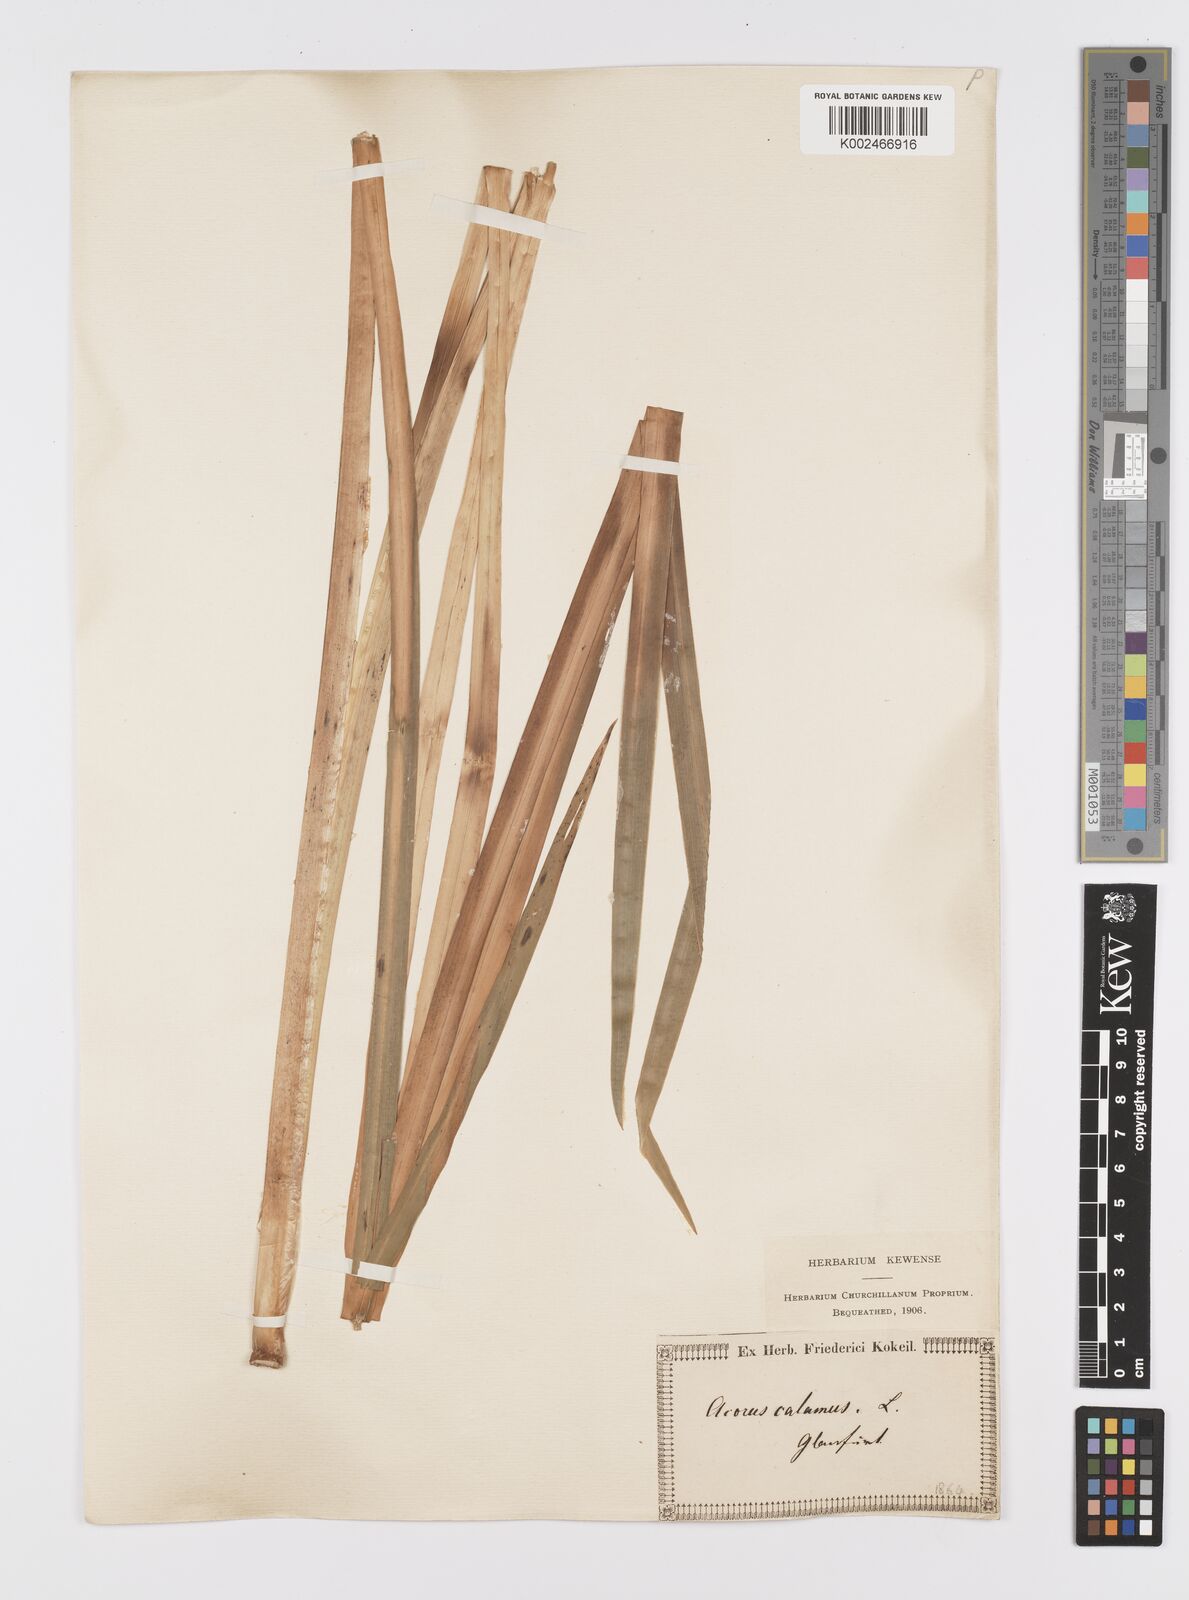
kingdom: Plantae
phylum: Tracheophyta
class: Liliopsida
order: Acorales
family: Acoraceae
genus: Acorus
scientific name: Acorus calamus
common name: Sweet-flag
